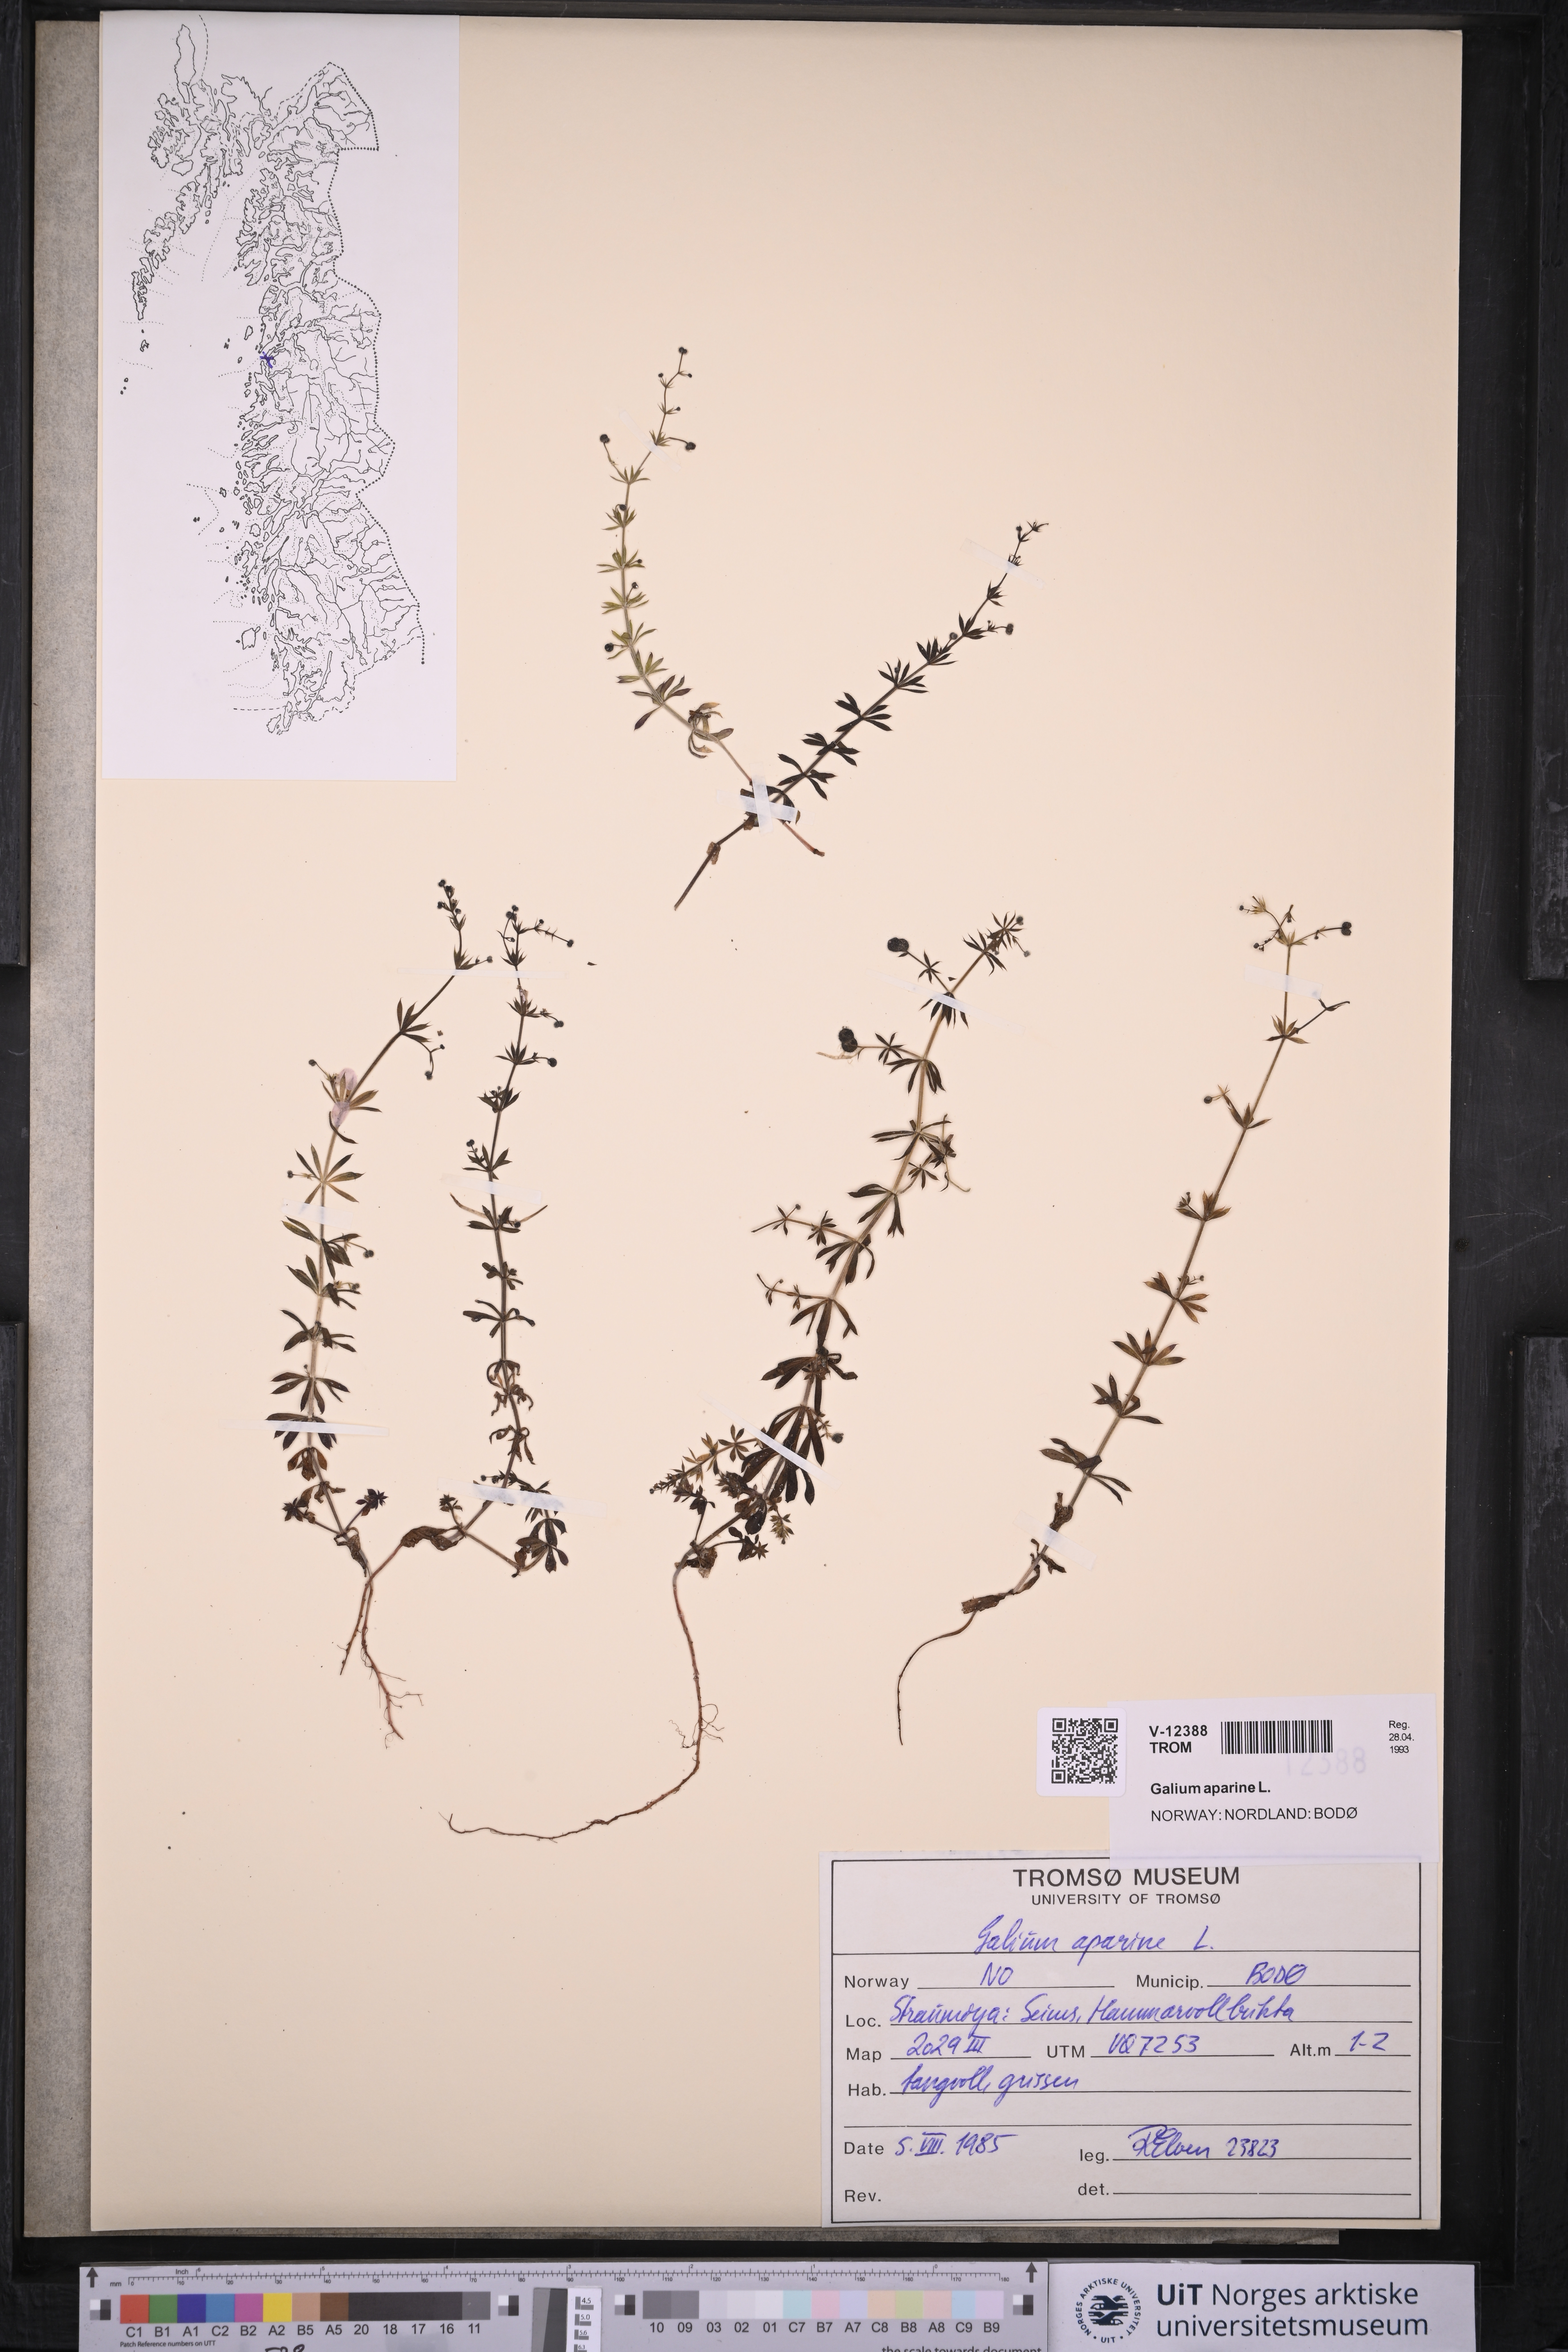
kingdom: Plantae
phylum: Tracheophyta
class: Magnoliopsida
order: Gentianales
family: Rubiaceae
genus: Galium
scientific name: Galium aparine
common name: Cleavers
